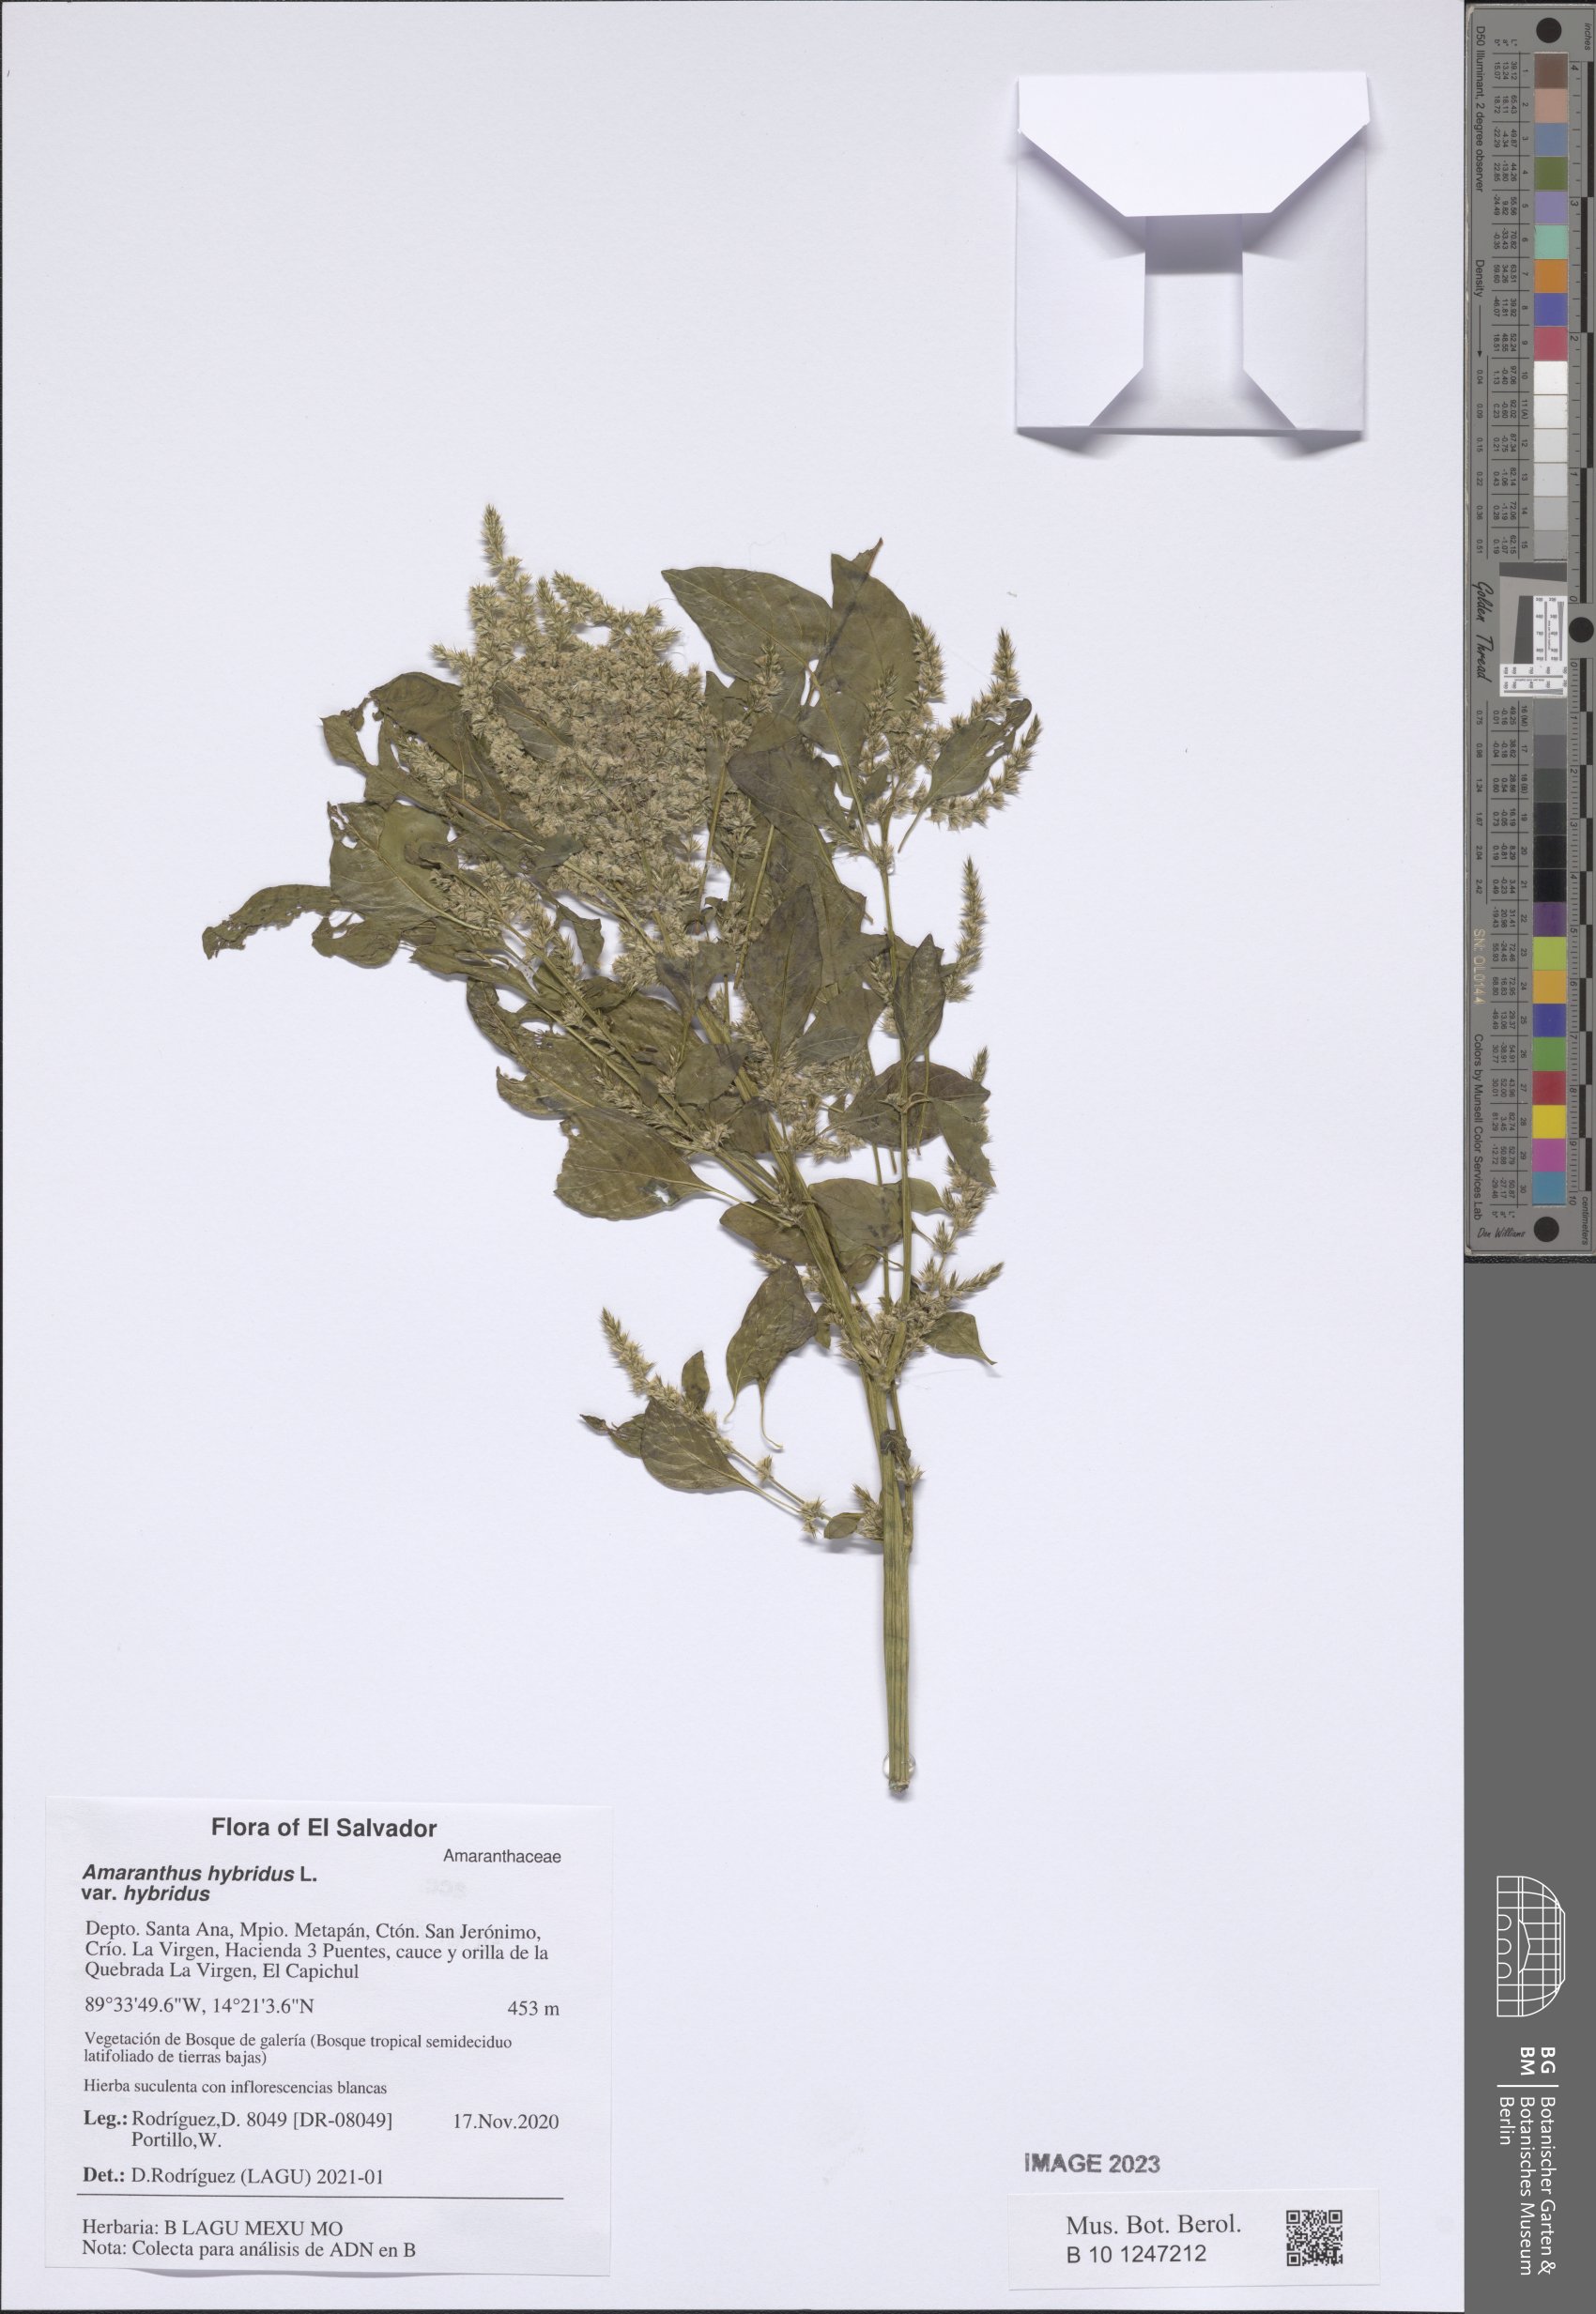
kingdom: Plantae
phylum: Tracheophyta
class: Magnoliopsida
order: Caryophyllales
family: Amaranthaceae
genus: Amaranthus
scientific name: Amaranthus hybridus
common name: Green amaranth
